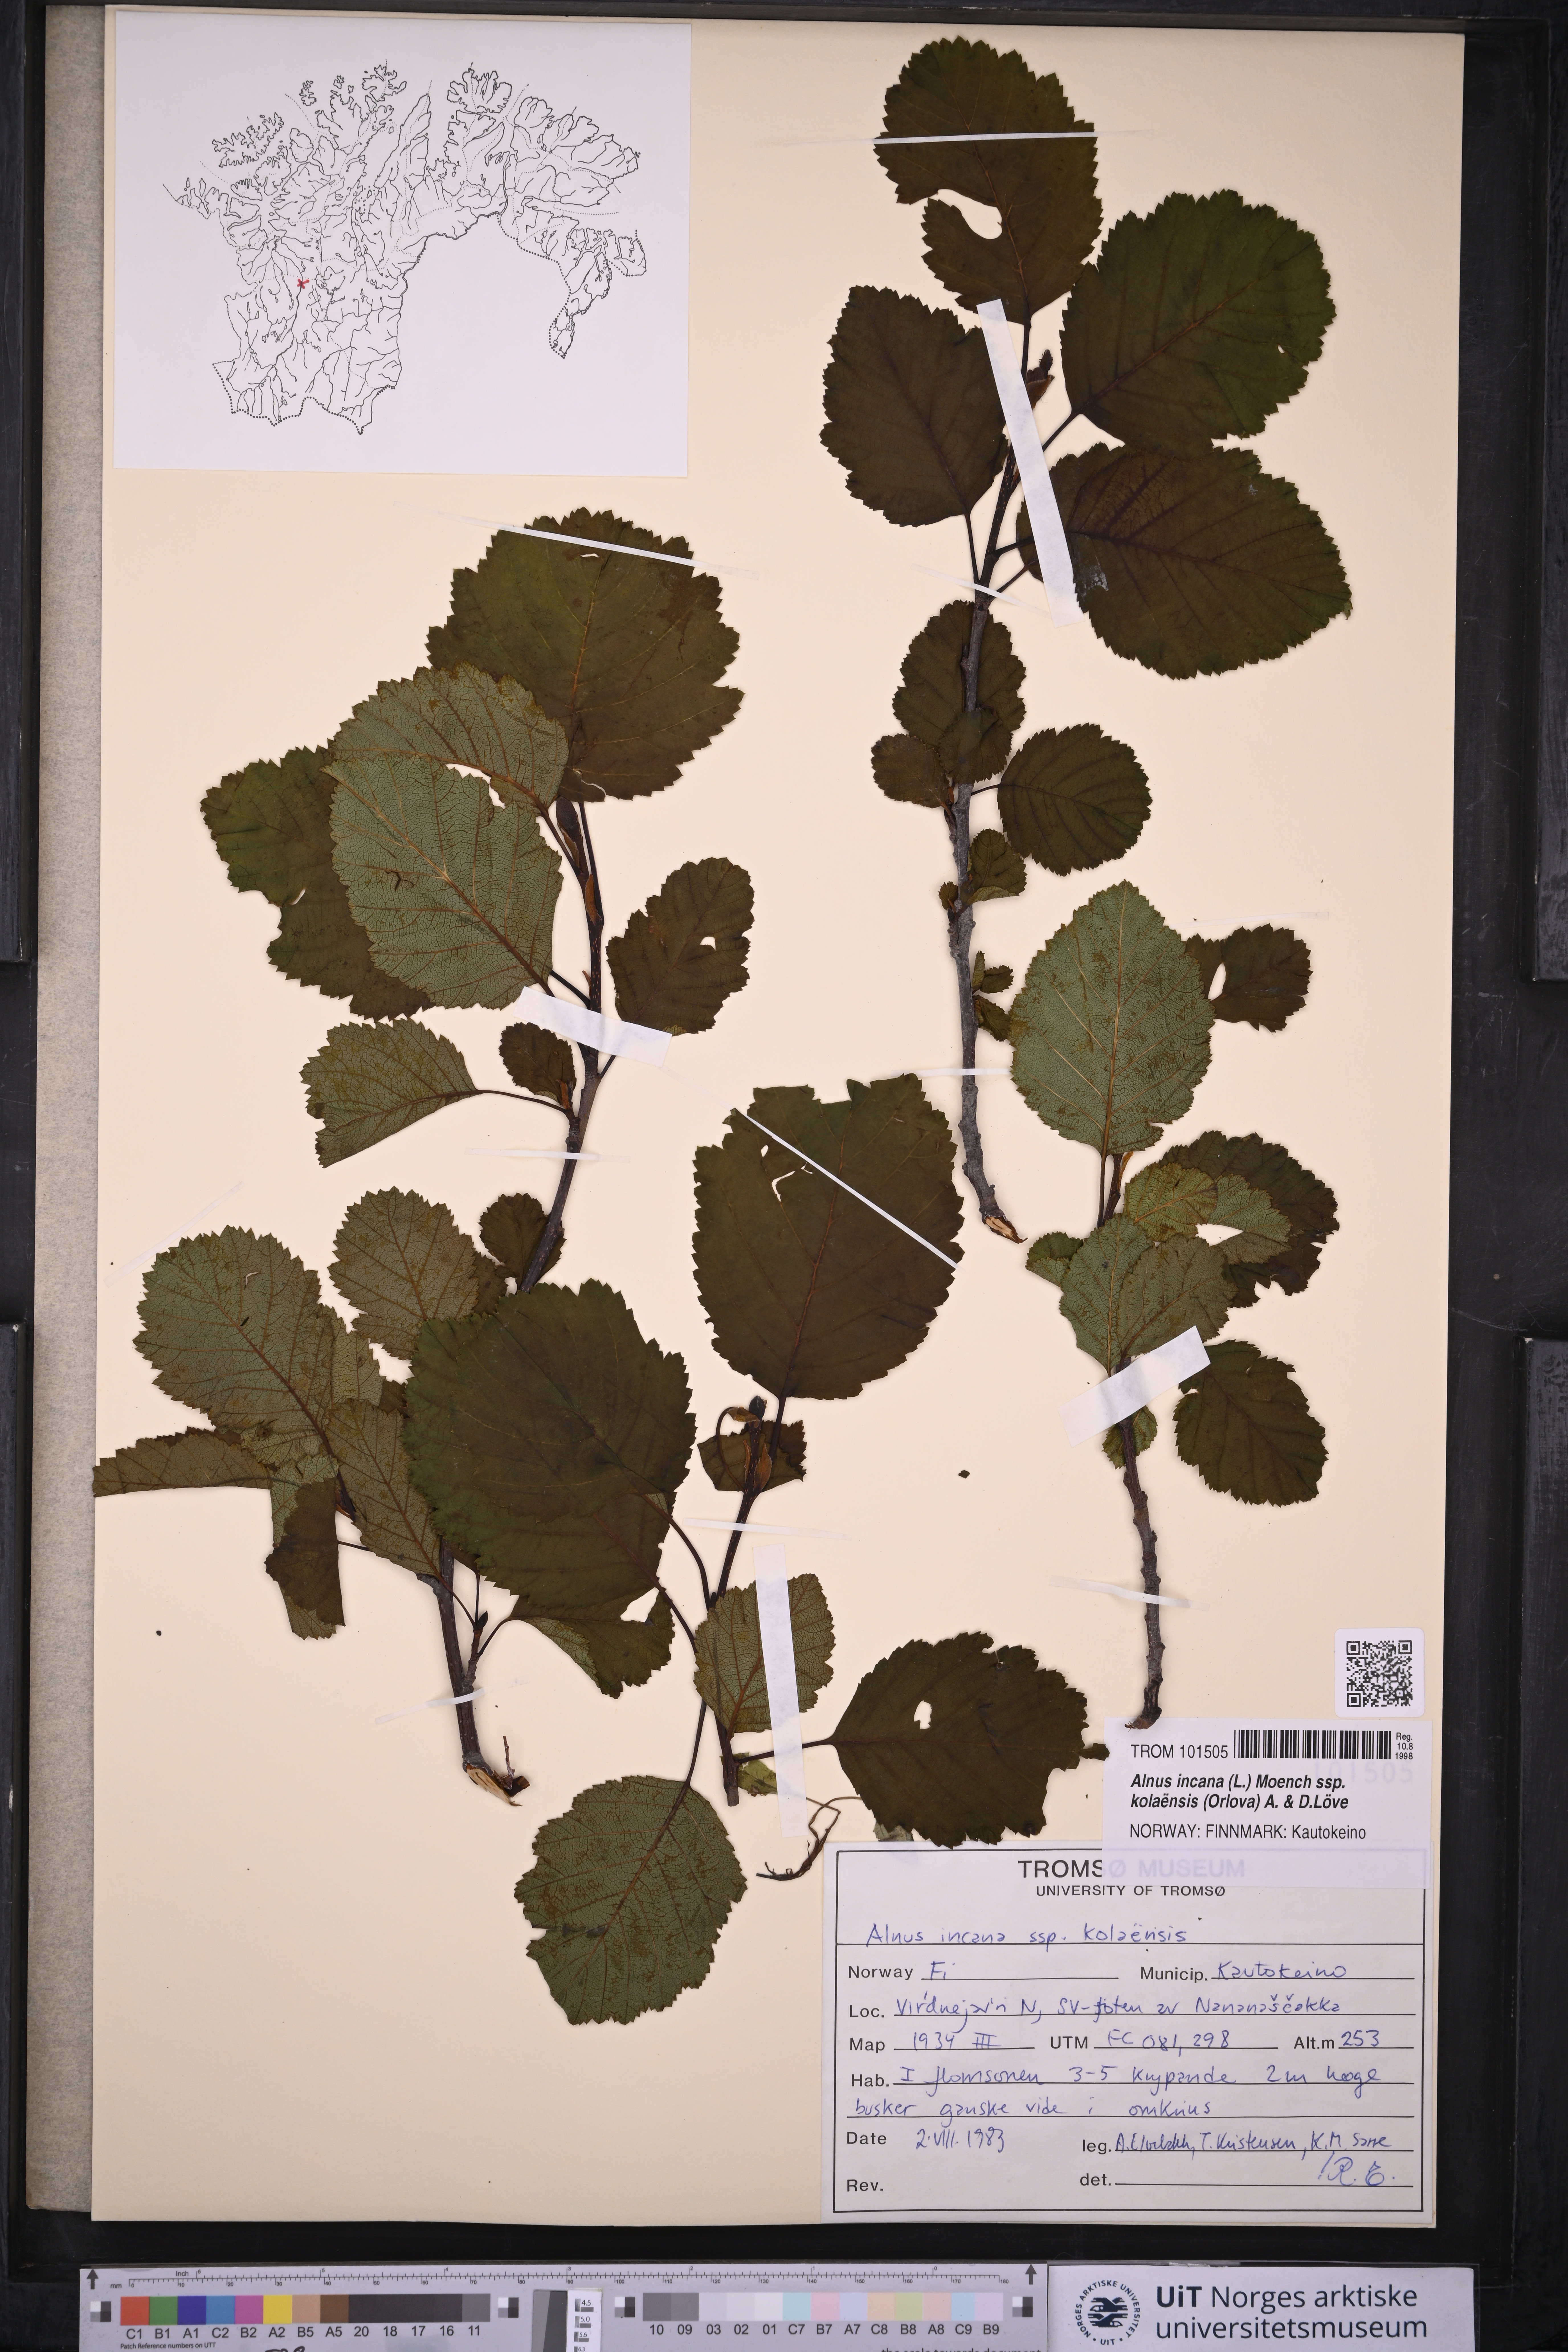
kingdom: Plantae
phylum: Tracheophyta
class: Magnoliopsida
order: Fagales
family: Betulaceae
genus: Alnus
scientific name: Alnus incana
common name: Grey alder
